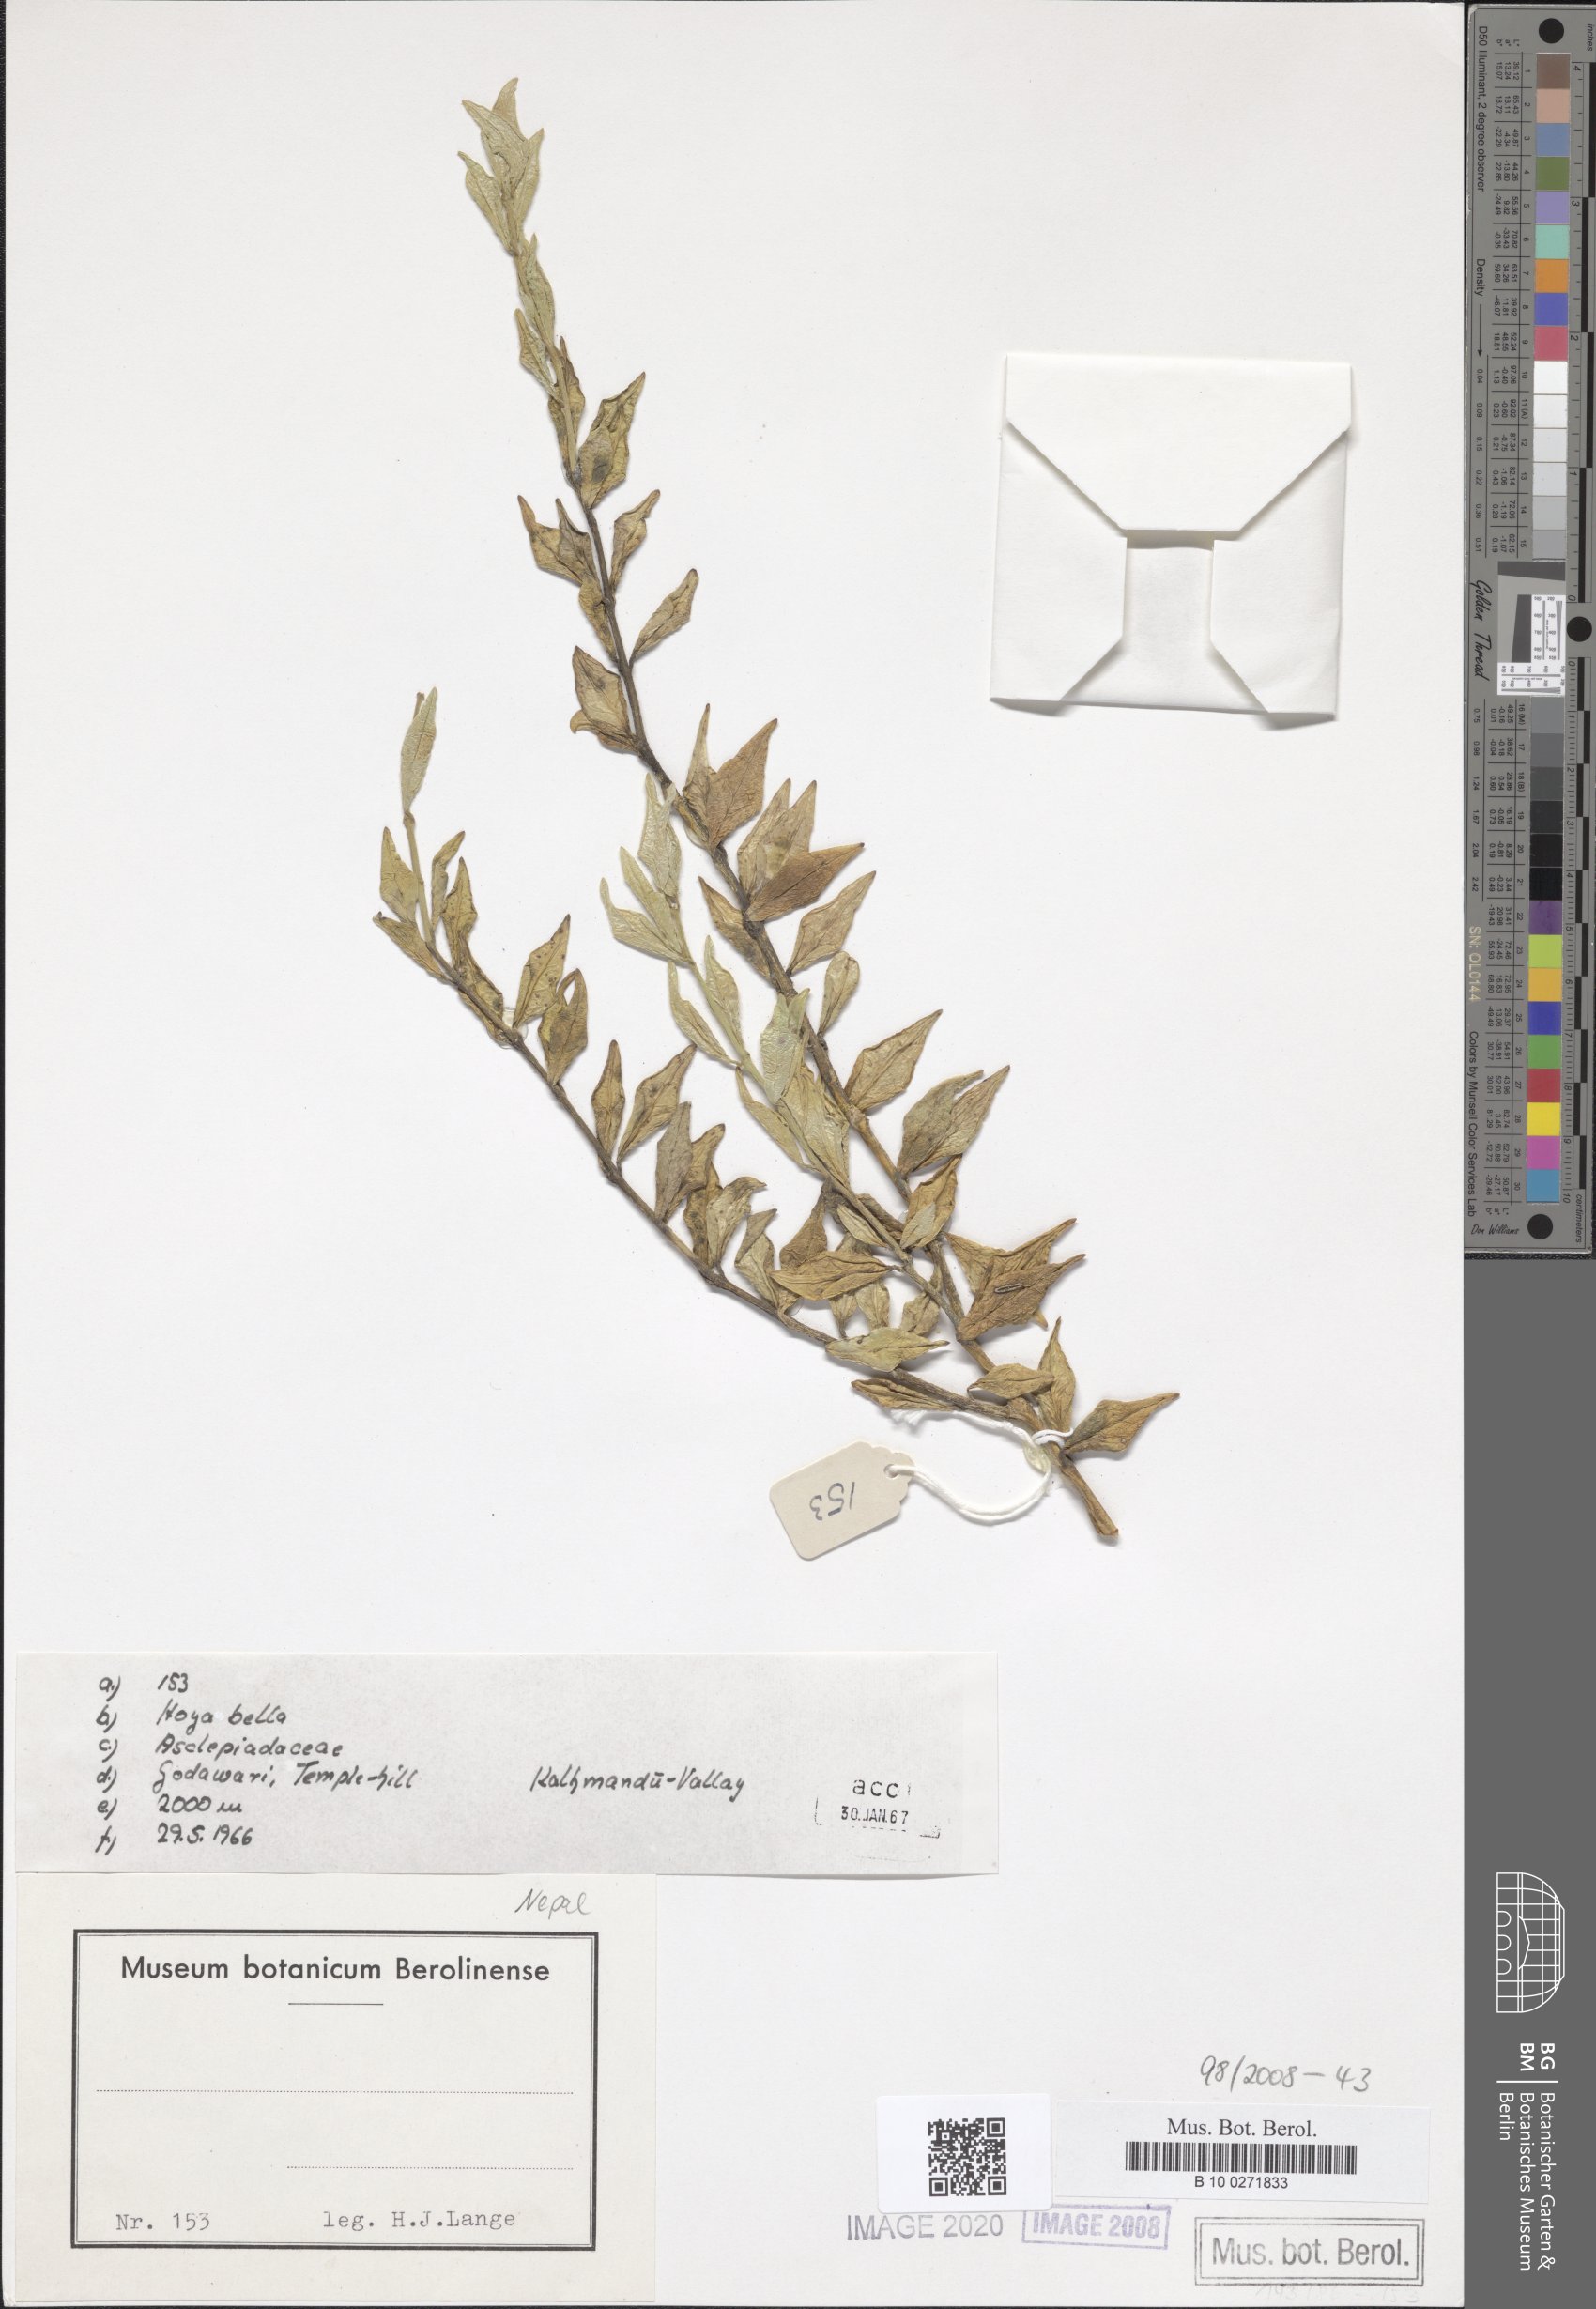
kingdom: Plantae
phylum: Tracheophyta
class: Magnoliopsida
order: Gentianales
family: Apocynaceae
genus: Hoya
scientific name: Hoya bella
